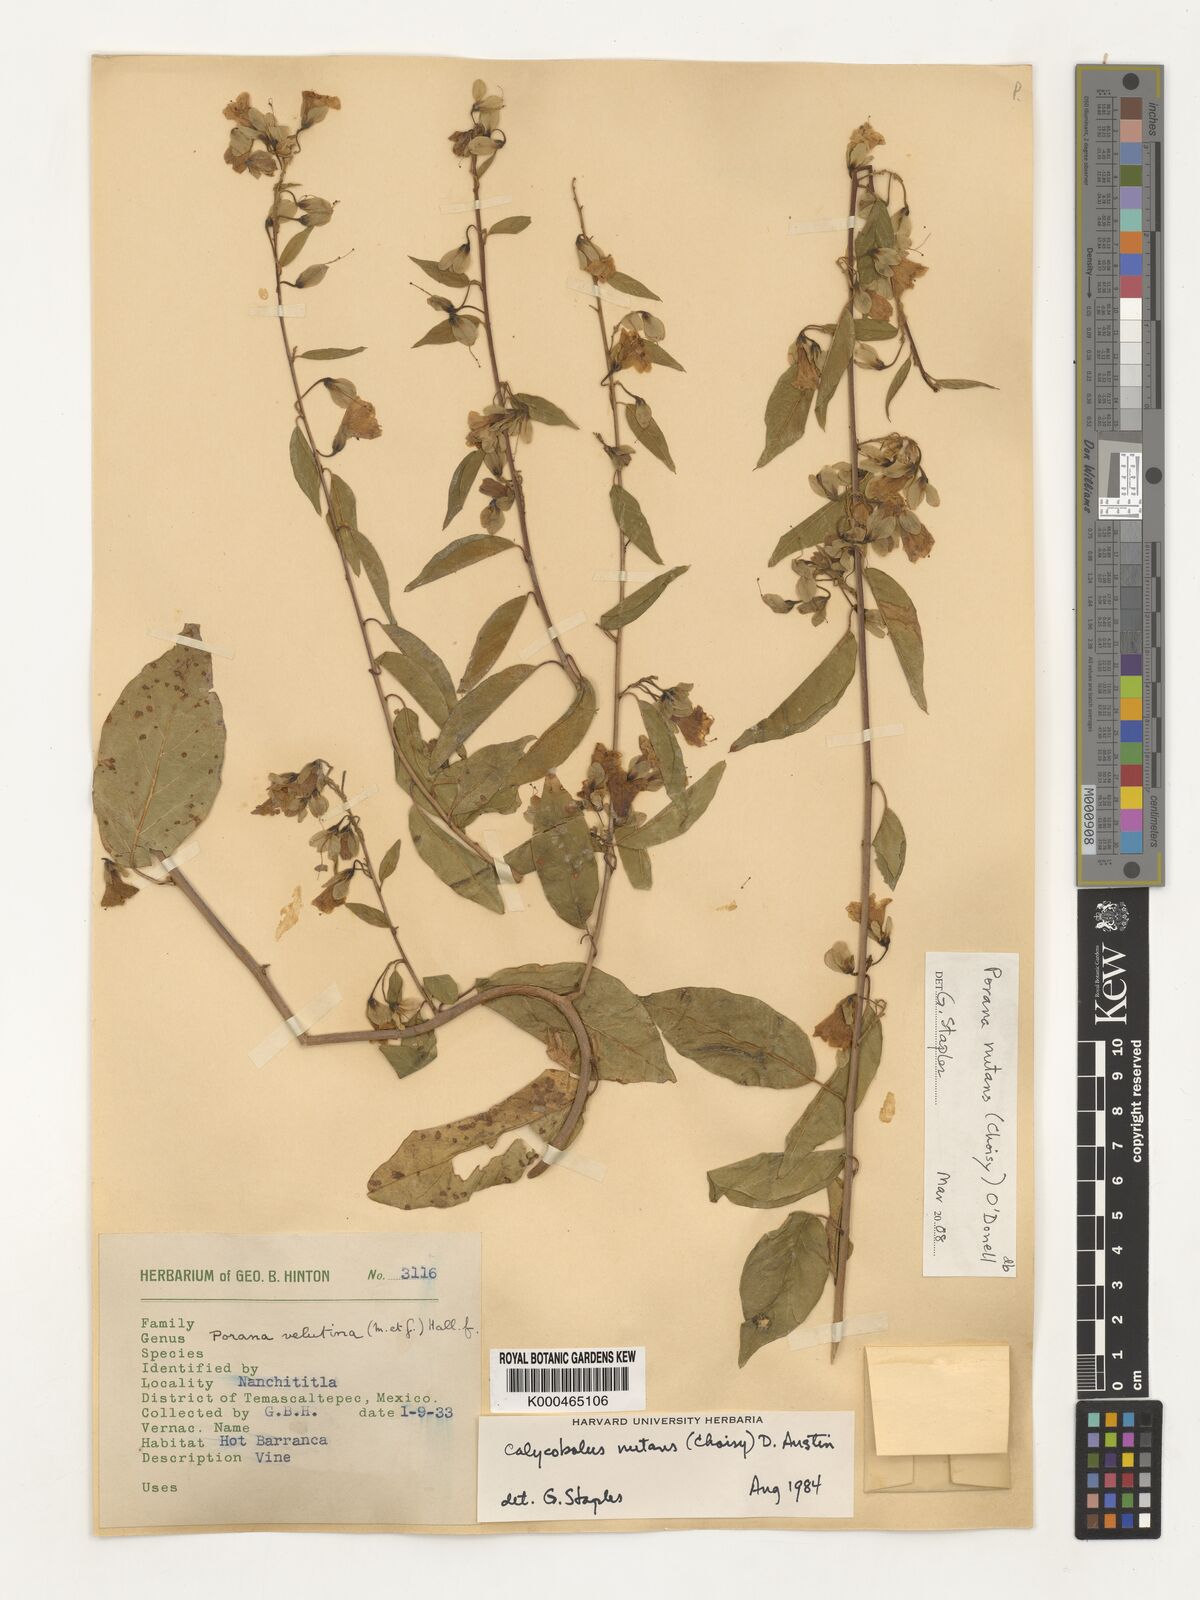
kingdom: Plantae
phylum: Tracheophyta
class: Magnoliopsida
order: Solanales
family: Convolvulaceae
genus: Calycobolus
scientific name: Calycobolus
